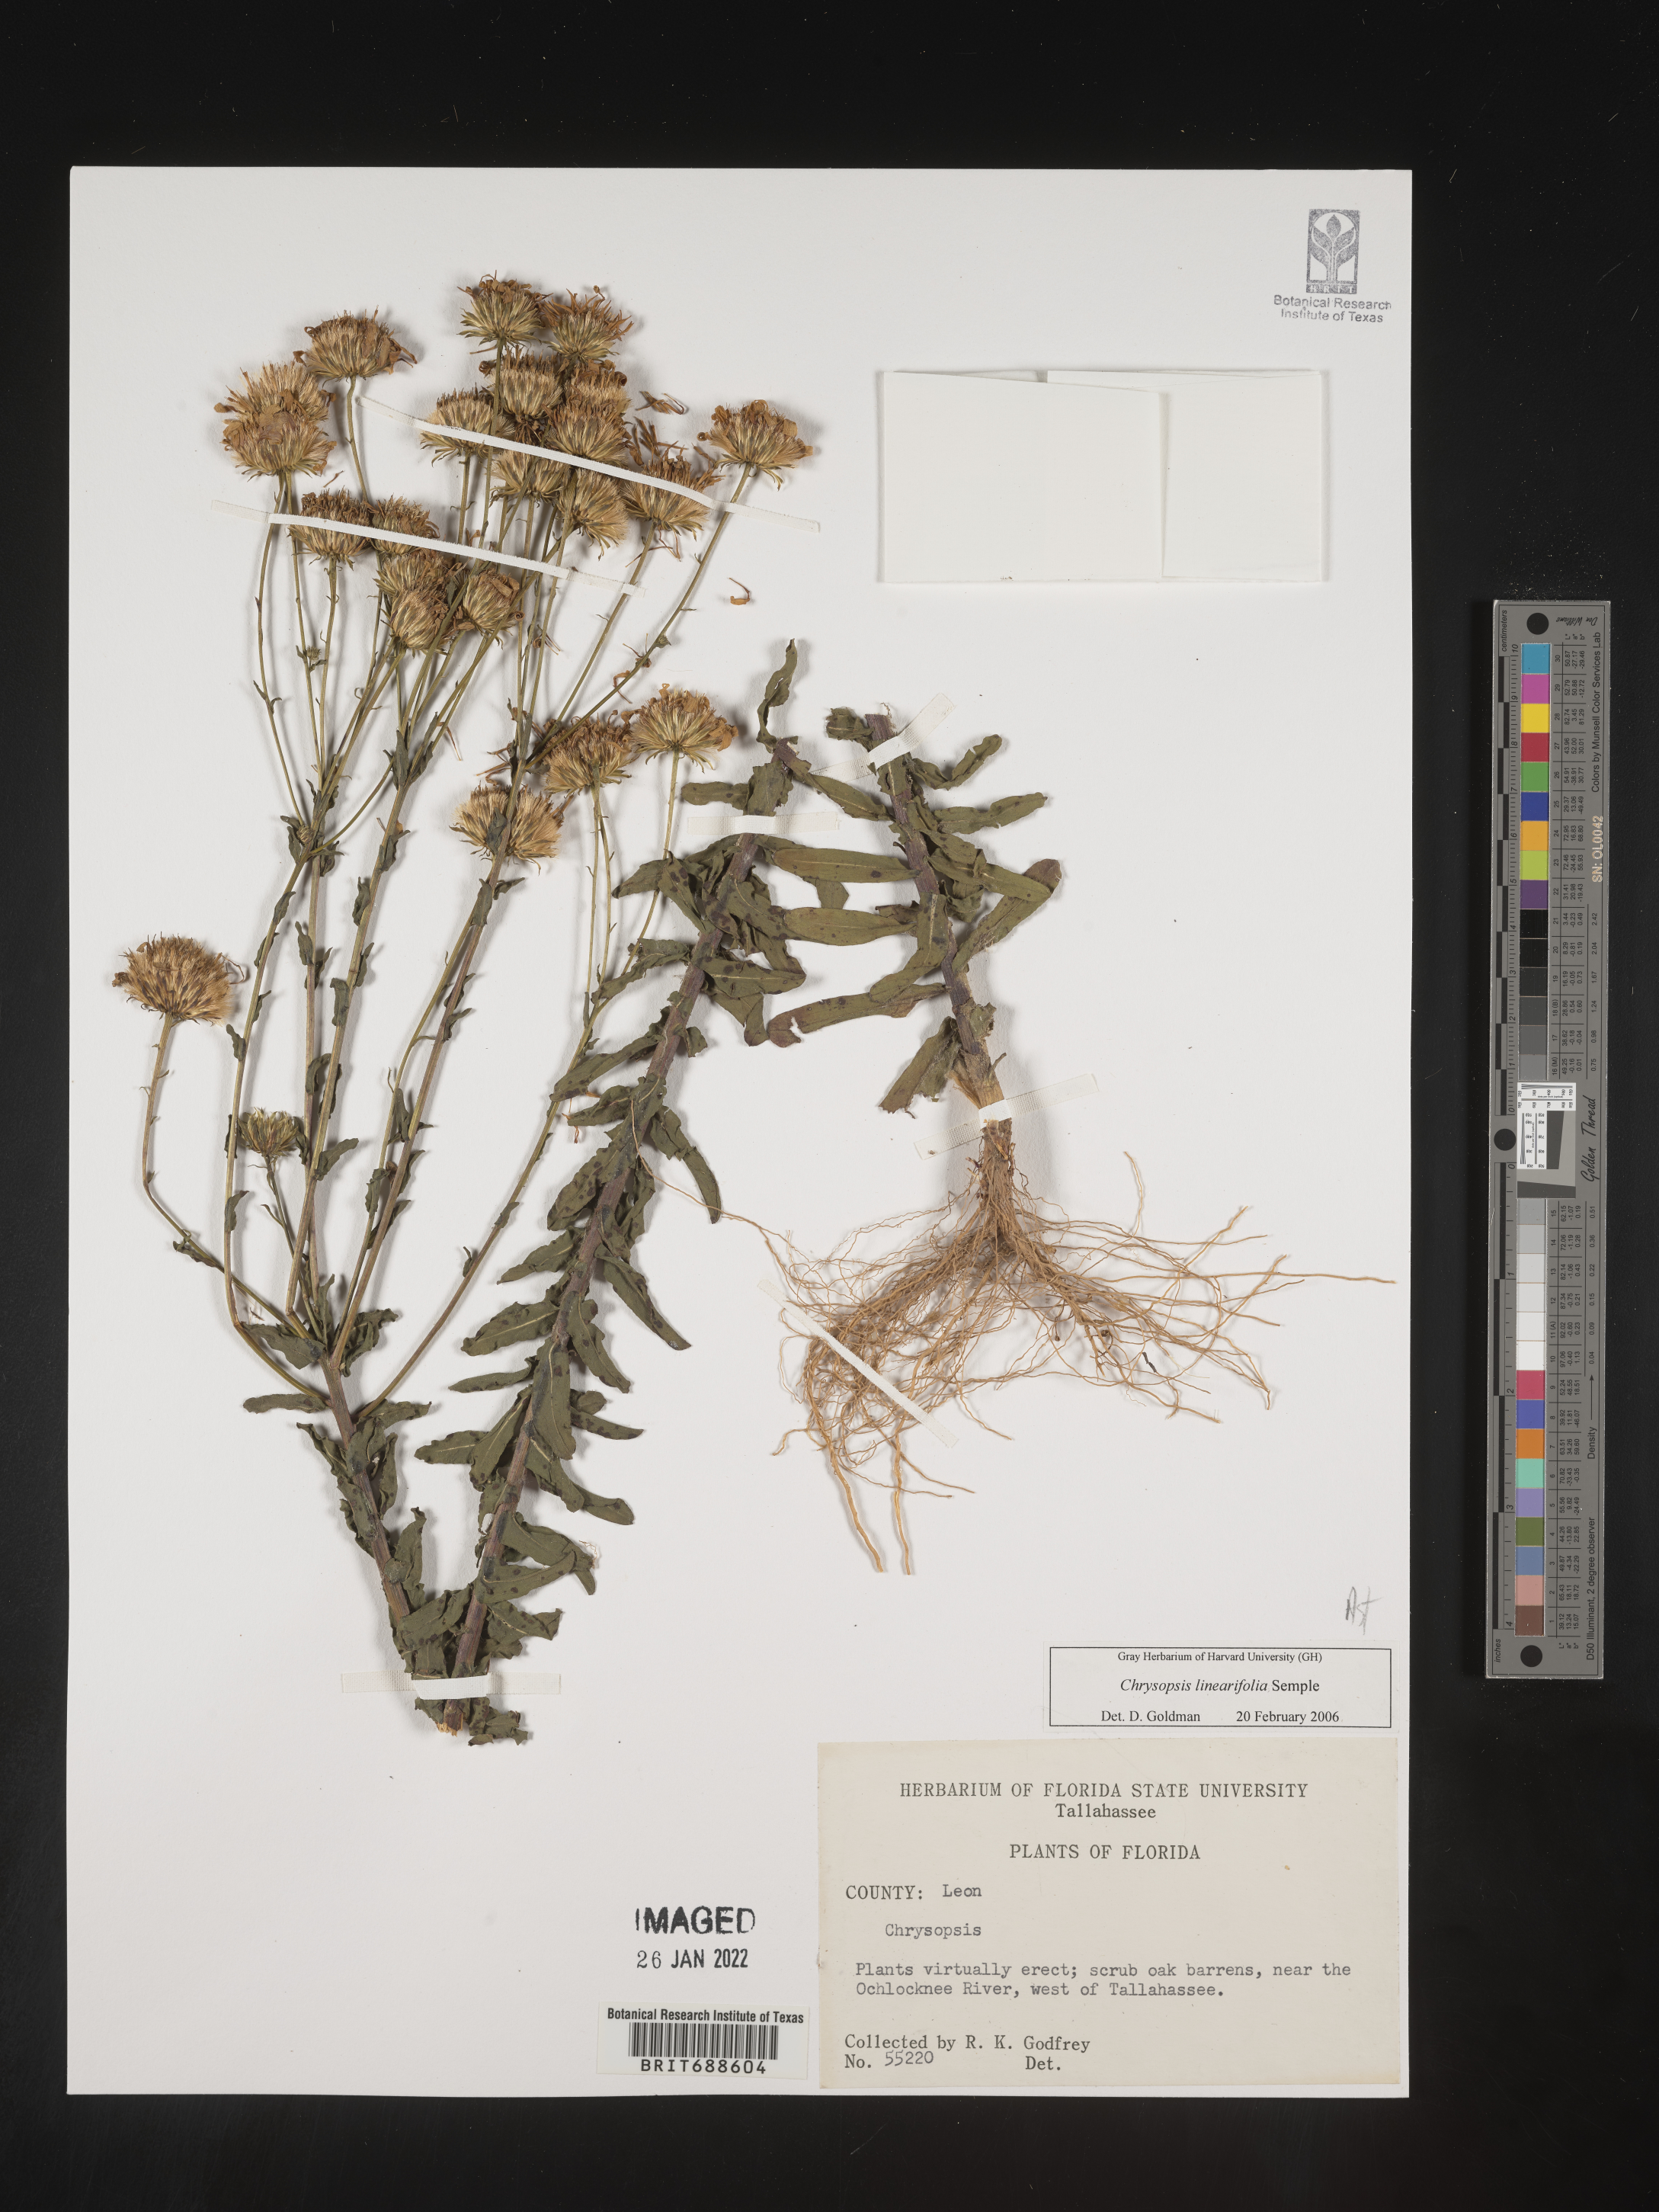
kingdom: Plantae
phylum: Tracheophyta
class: Magnoliopsida
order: Asterales
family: Asteraceae
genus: Chrysopsis
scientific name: Chrysopsis linearifolia
